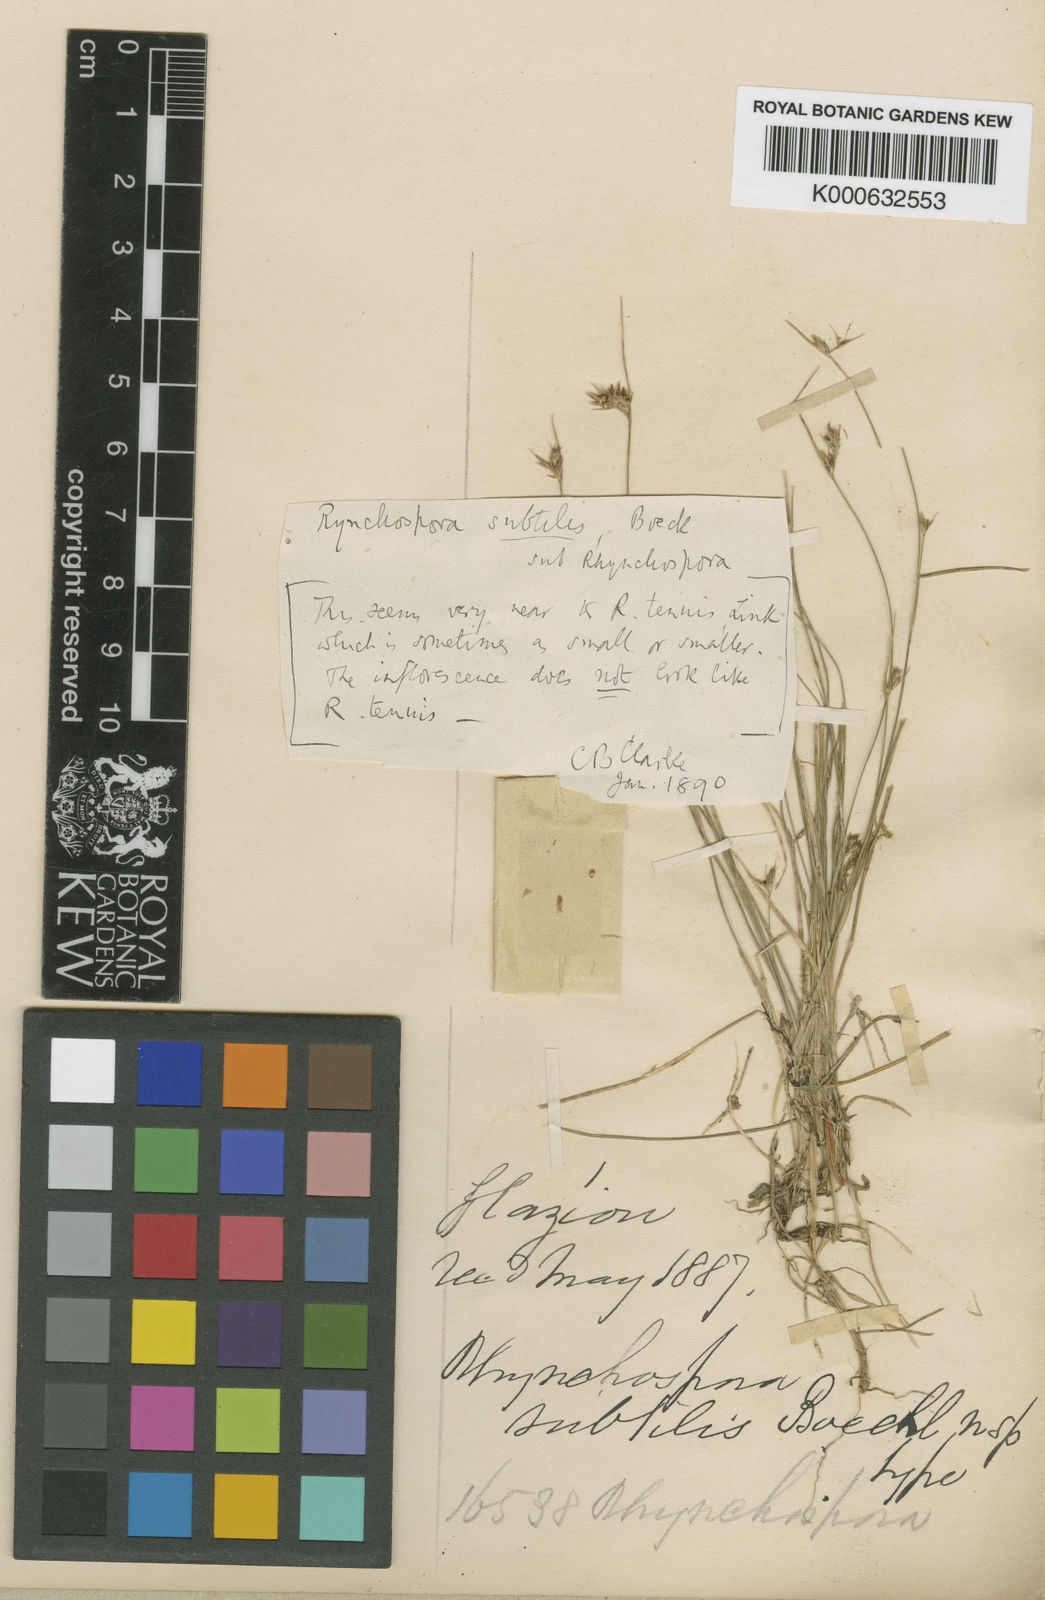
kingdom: Plantae
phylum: Tracheophyta
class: Liliopsida
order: Poales
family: Cyperaceae
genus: Rhynchospora
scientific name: Rhynchospora subtilis
